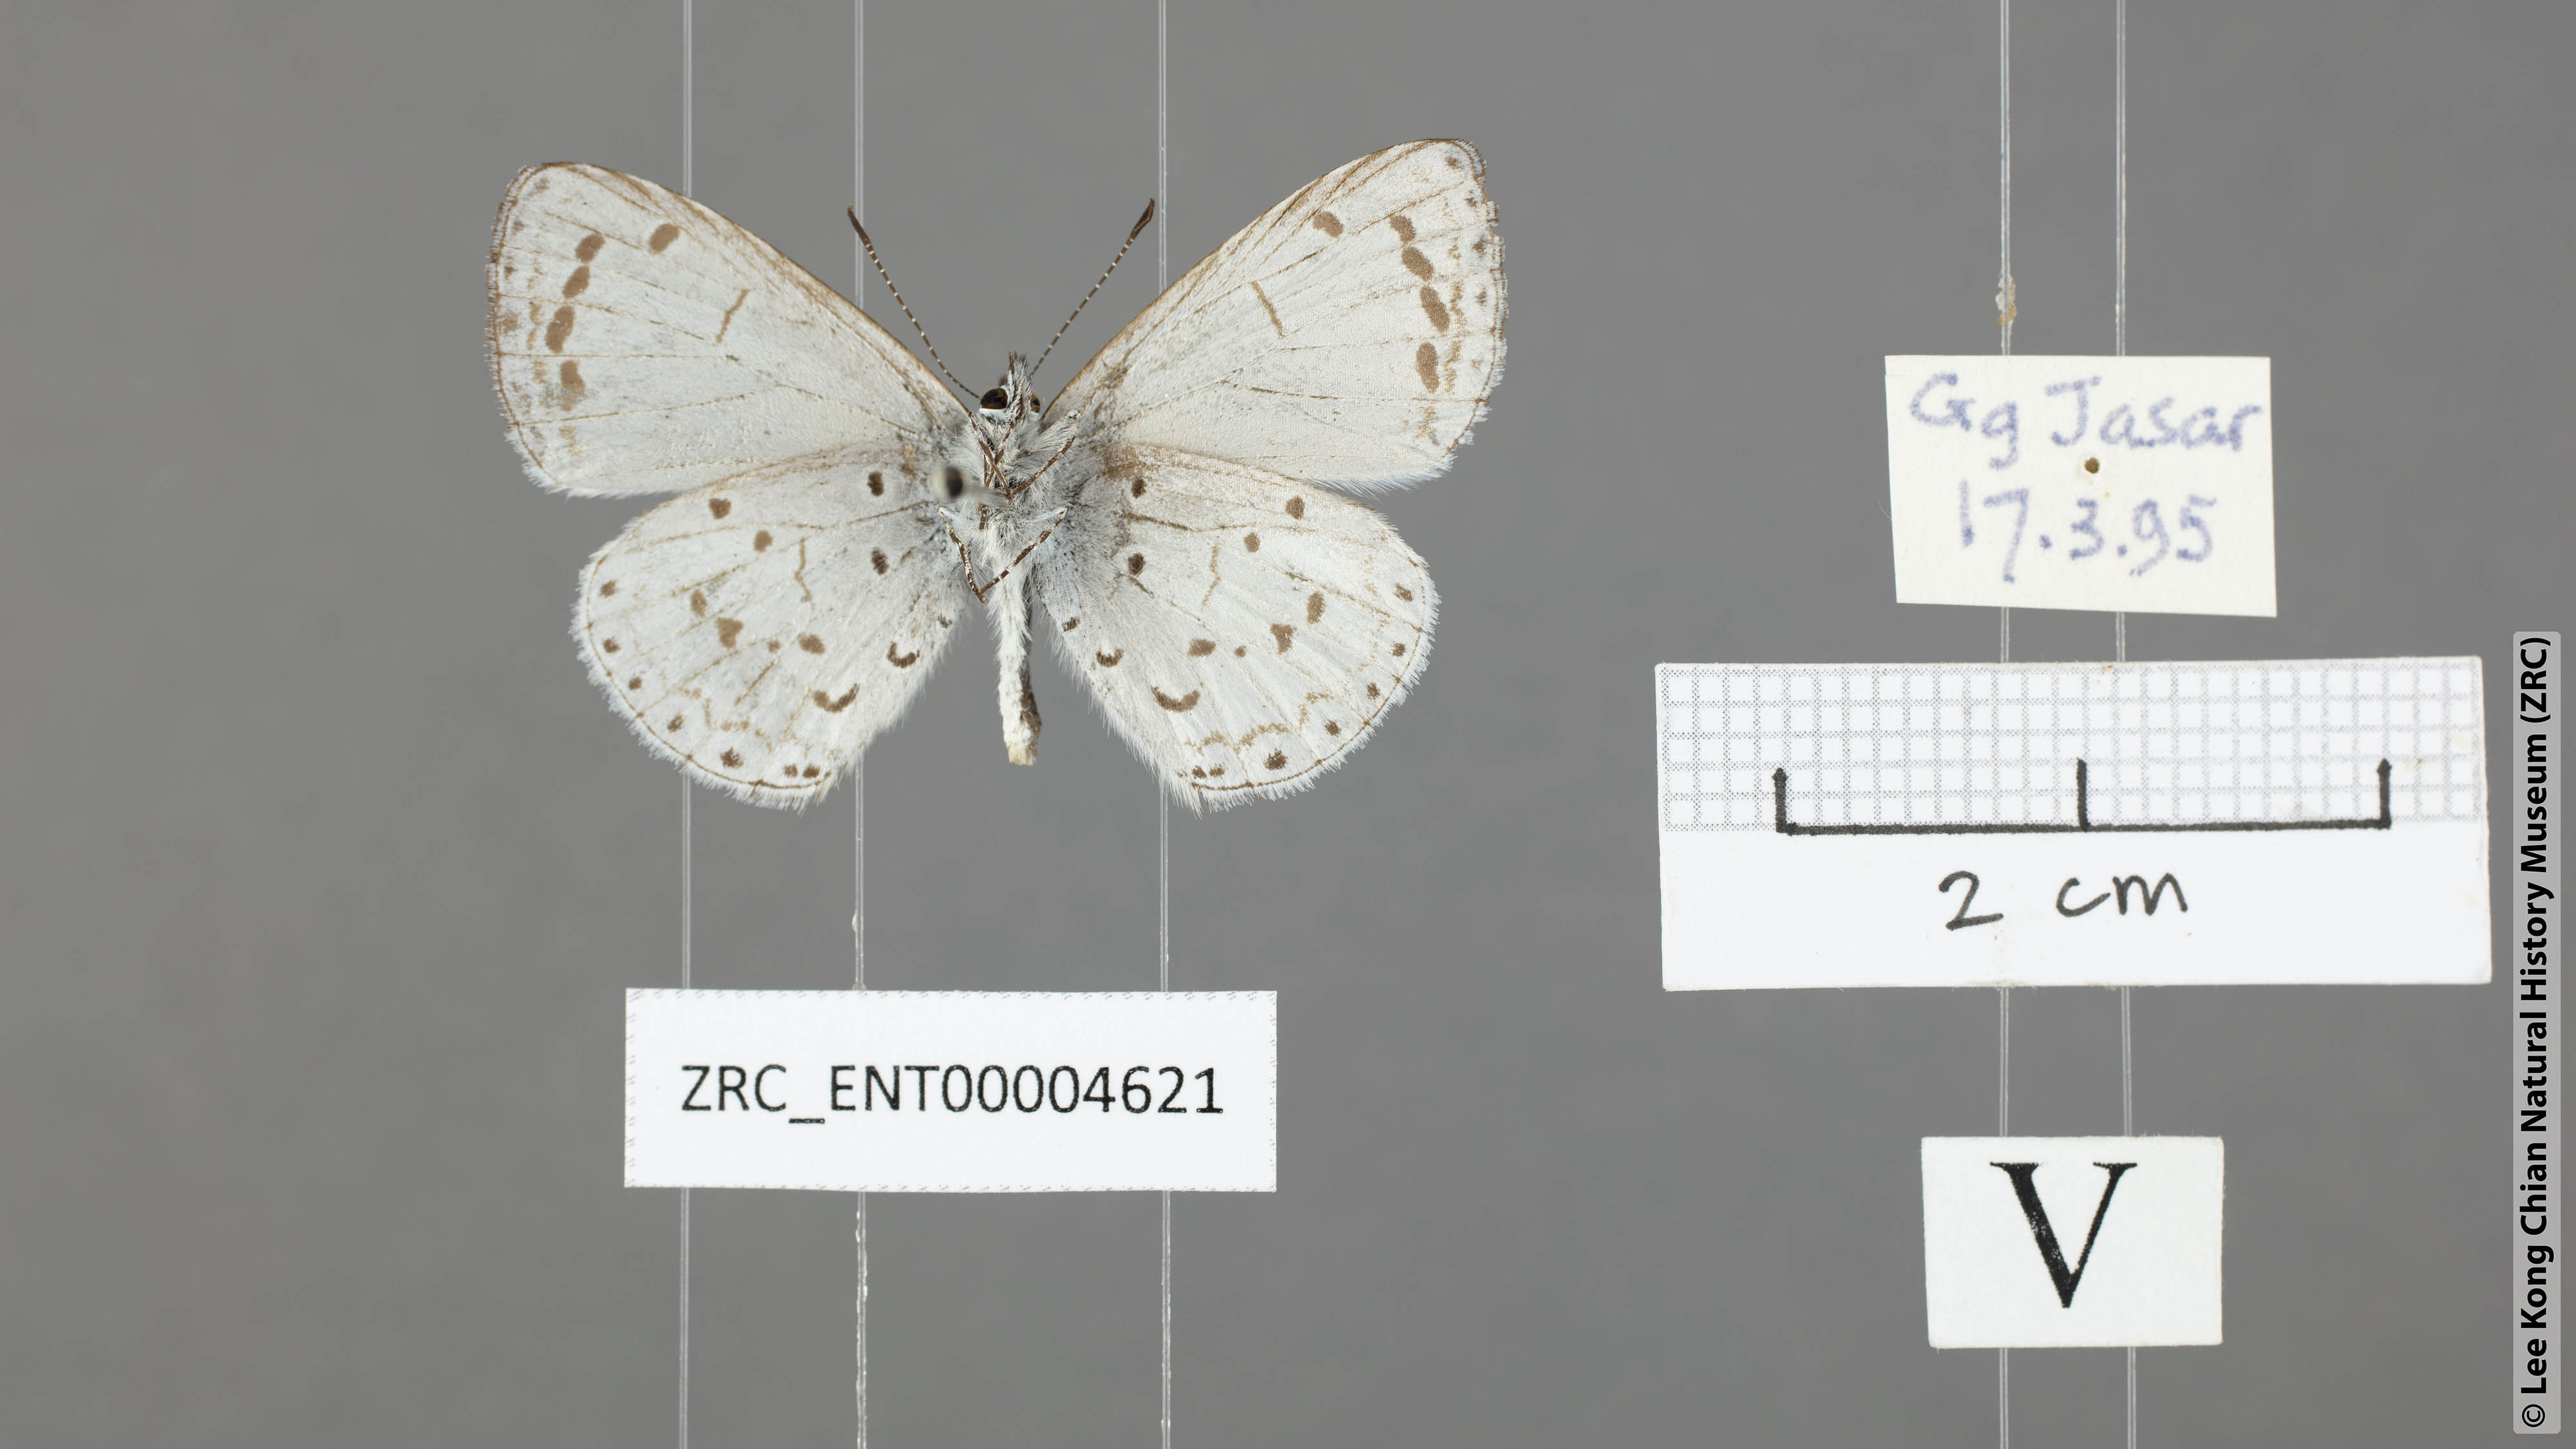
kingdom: Animalia
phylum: Arthropoda
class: Insecta
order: Lepidoptera
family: Lycaenidae
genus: Udara
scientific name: Udara
